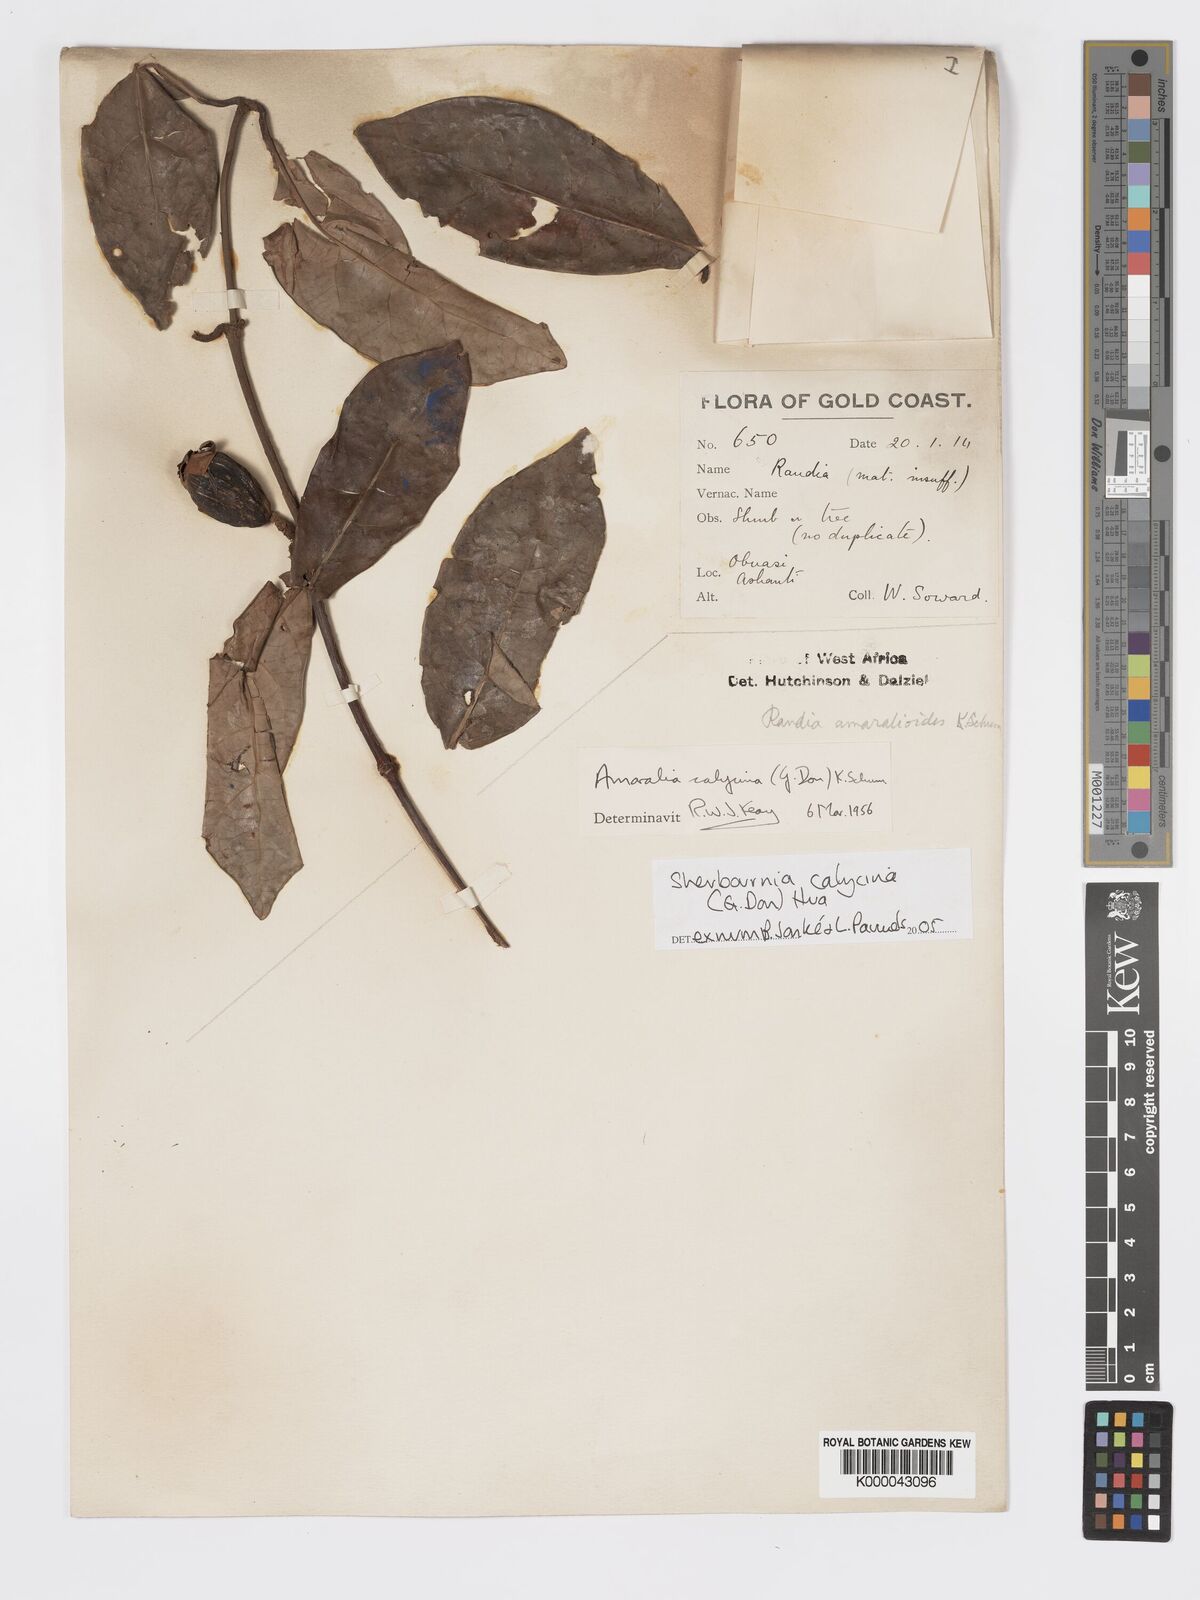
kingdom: Plantae
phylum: Tracheophyta
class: Magnoliopsida
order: Gentianales
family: Rubiaceae
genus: Sherbournia
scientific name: Sherbournia calycina
